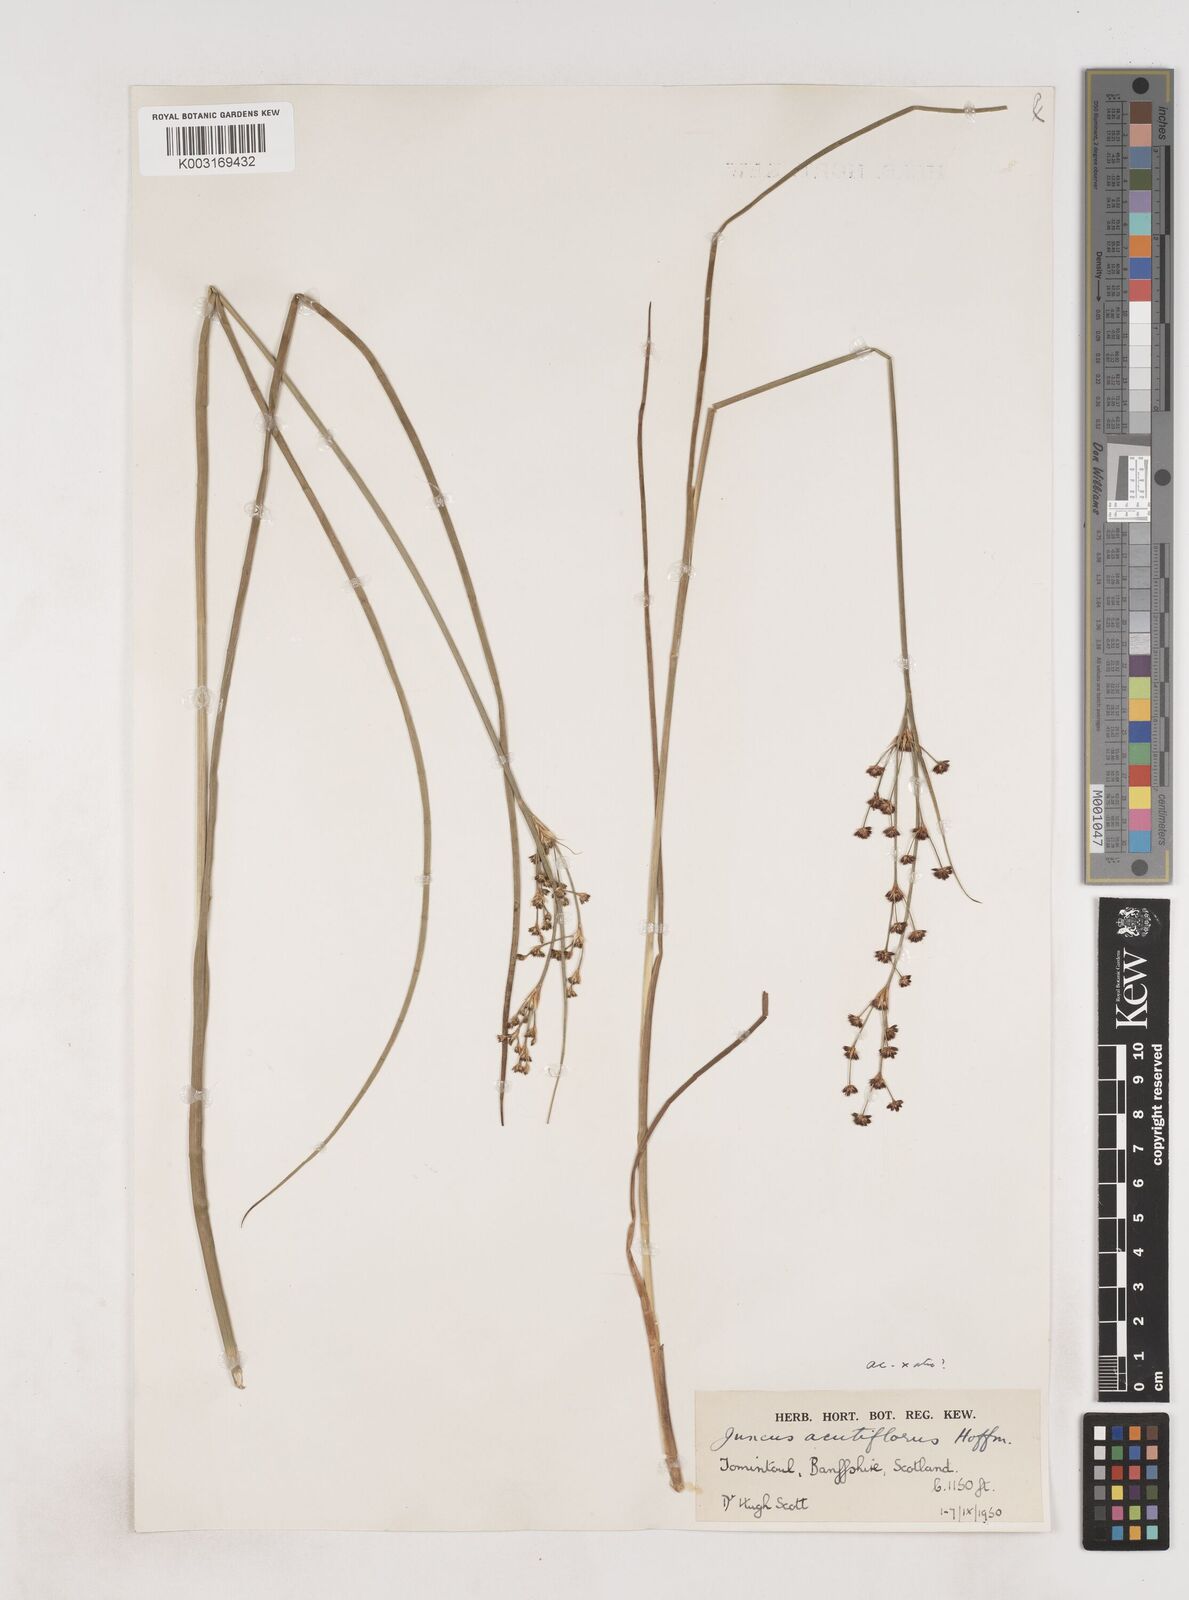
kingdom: Plantae
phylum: Tracheophyta
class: Liliopsida
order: Poales
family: Juncaceae
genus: Juncus
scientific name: Juncus acutiflorus
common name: Sharp-flowered rush
